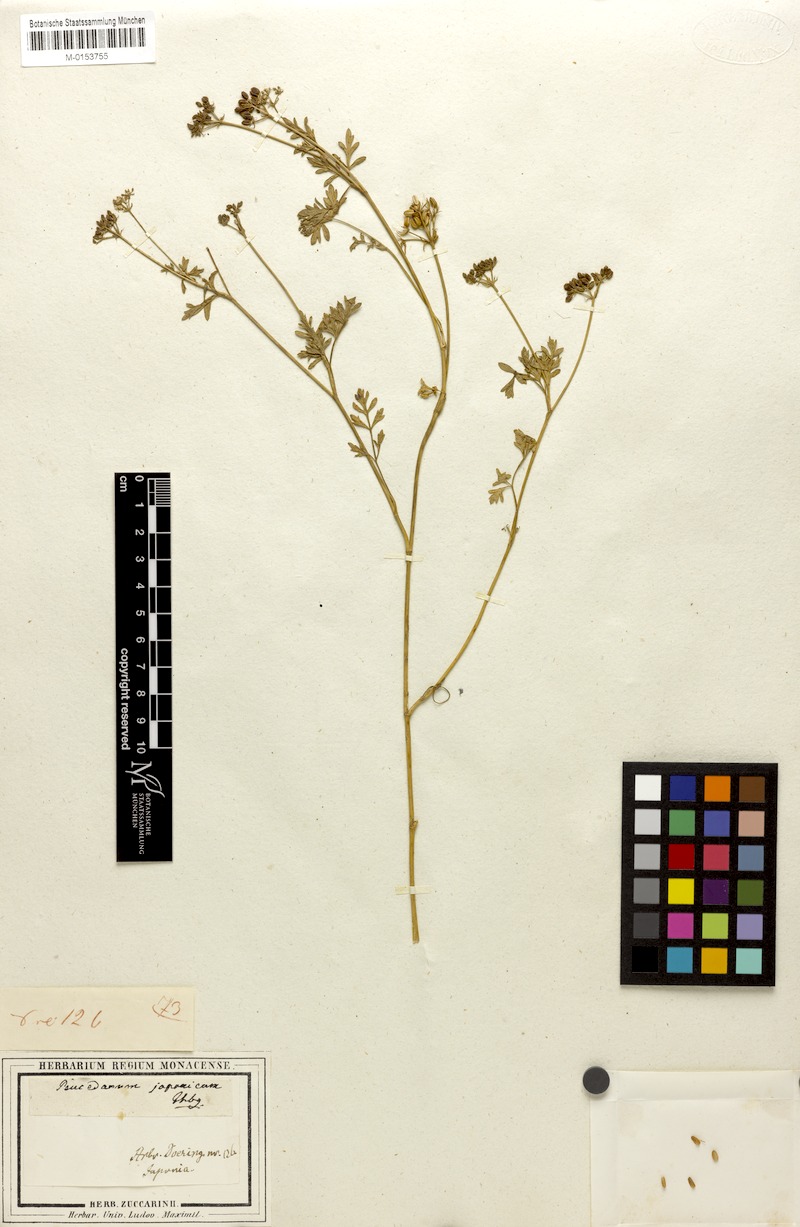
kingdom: Plantae
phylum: Tracheophyta
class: Magnoliopsida
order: Apiales
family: Apiaceae
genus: Peucedanum
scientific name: Peucedanum japonicum
